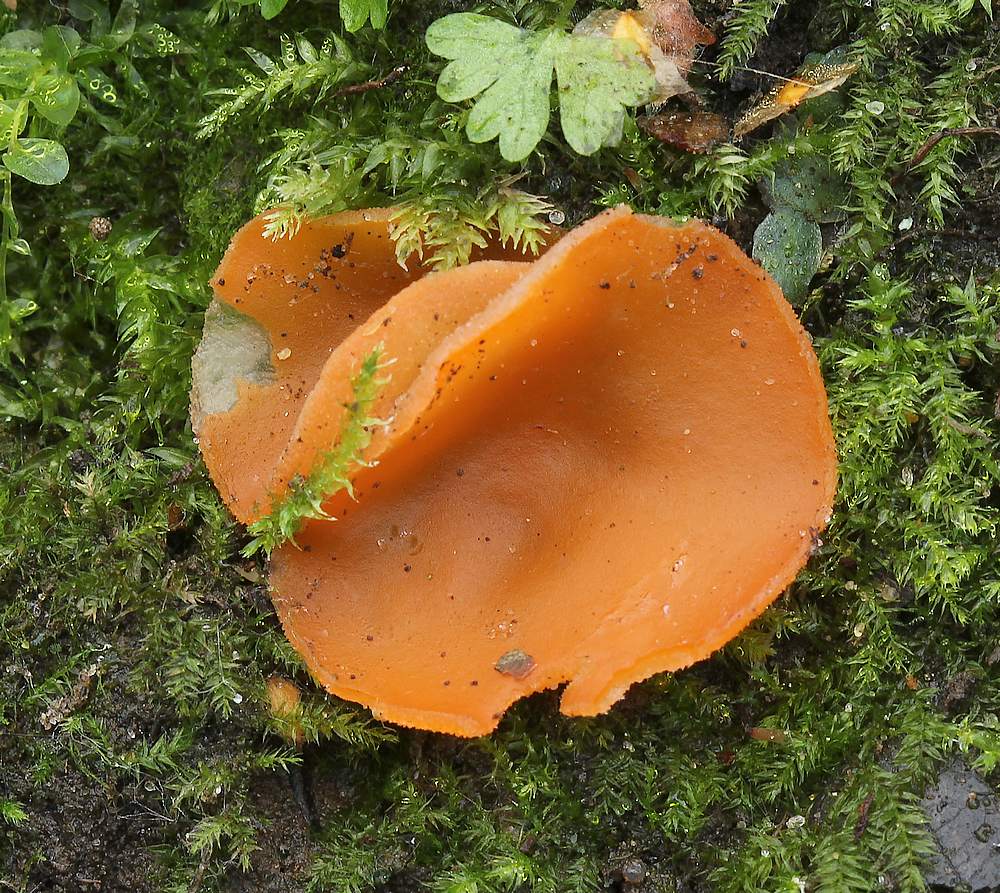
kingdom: Fungi
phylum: Ascomycota
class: Pezizomycetes
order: Pezizales
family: Pyronemataceae
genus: Aleuria
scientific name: Aleuria aurantia
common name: almindelig orangebæger
